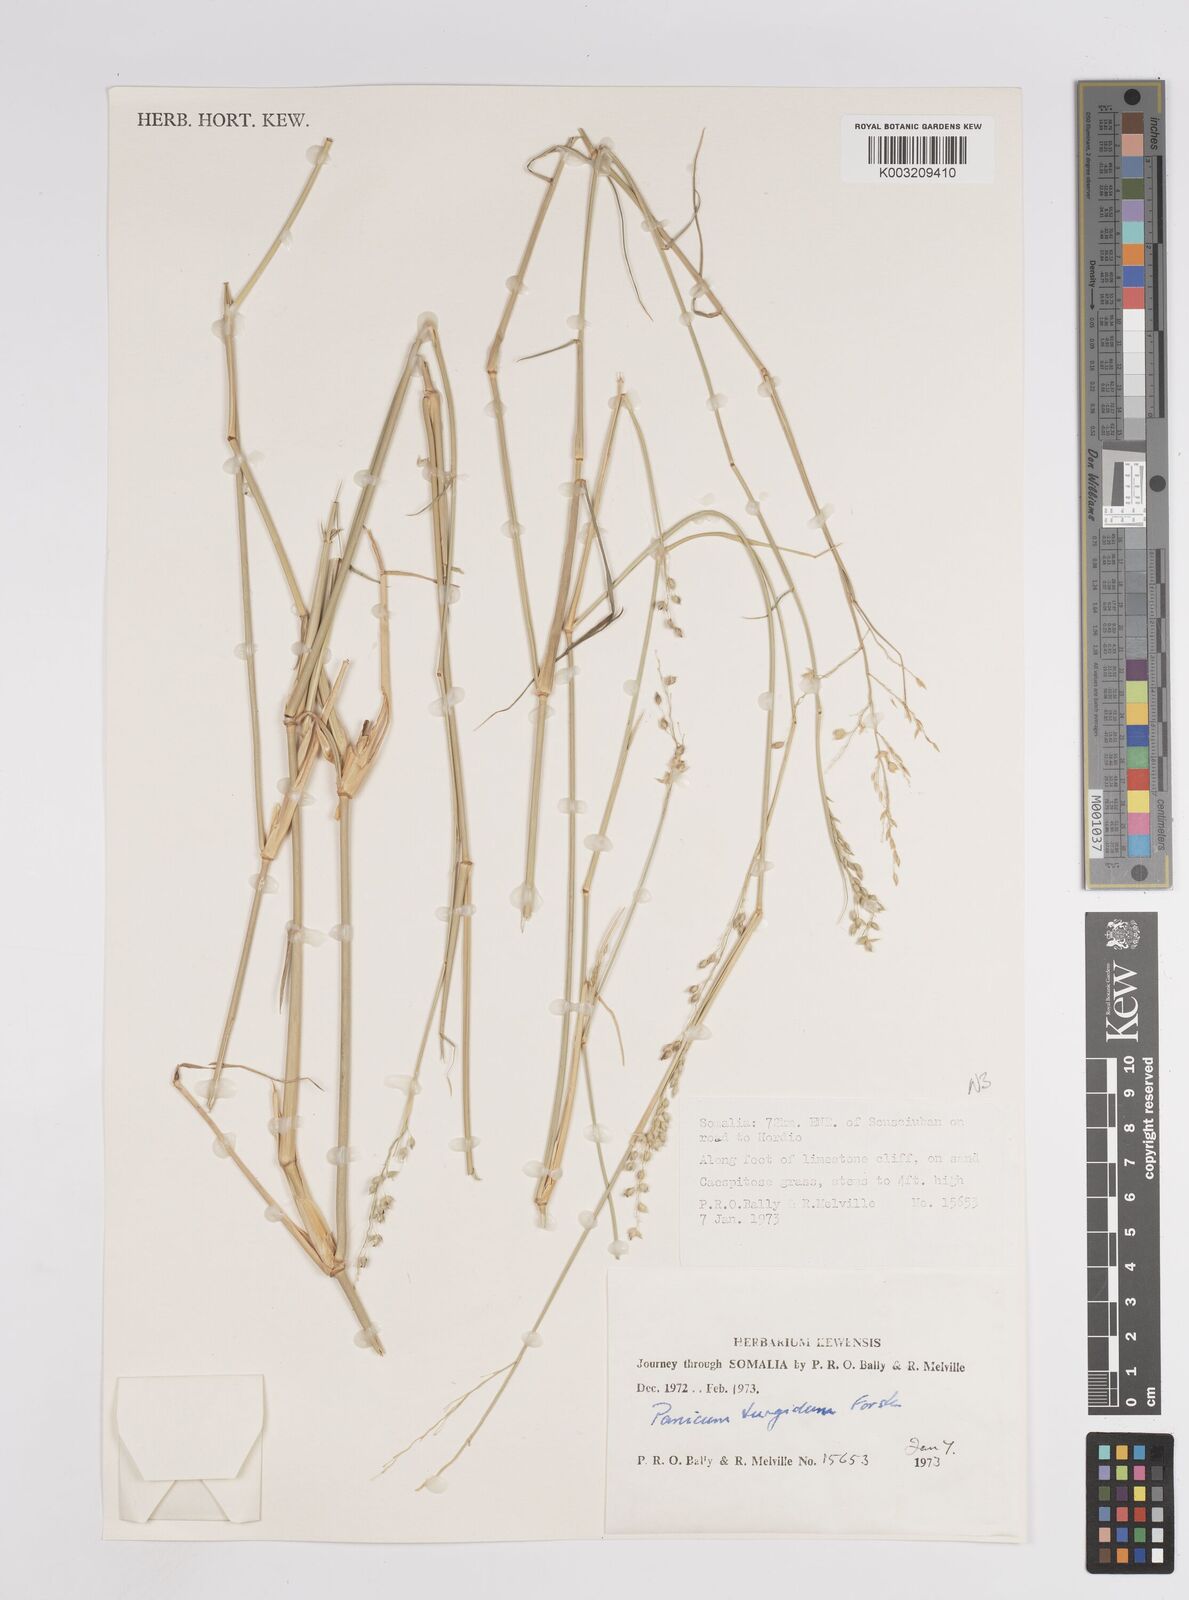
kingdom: Plantae
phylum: Tracheophyta
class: Liliopsida
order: Poales
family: Poaceae
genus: Panicum
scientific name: Panicum turgidum
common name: Desert grass
